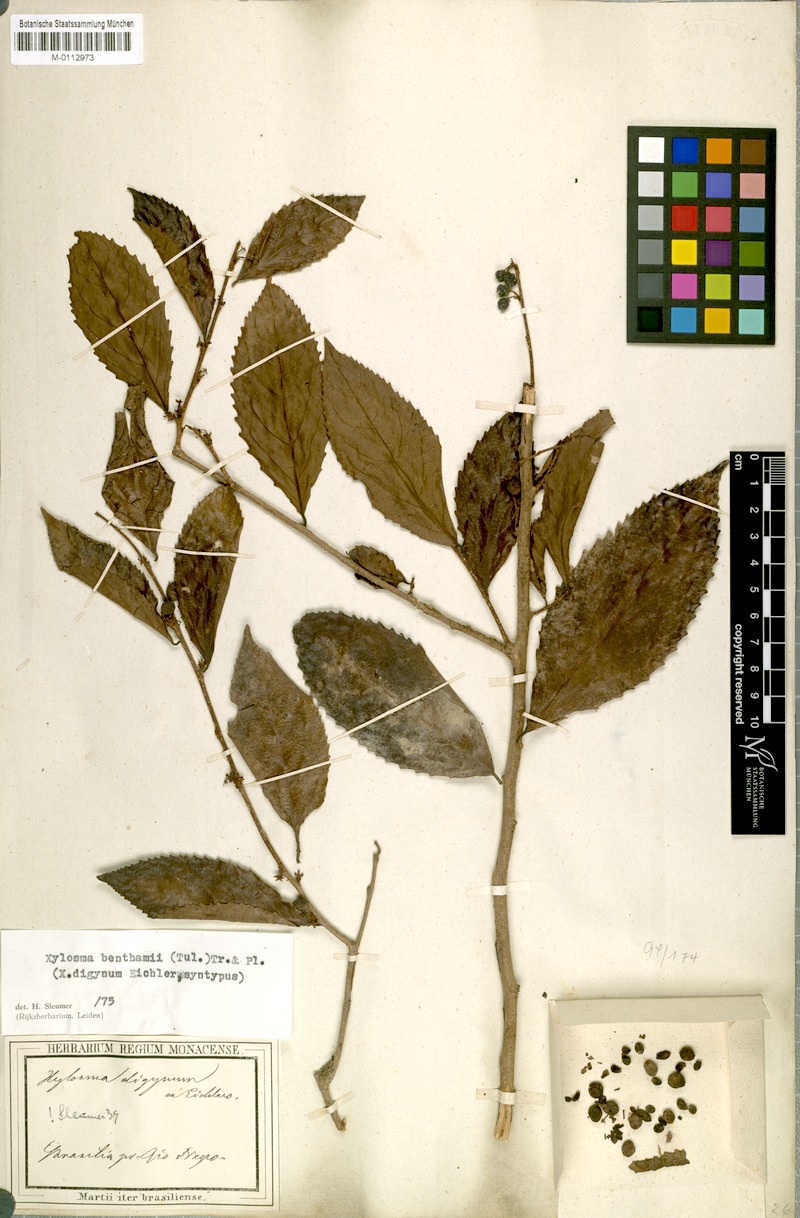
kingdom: Plantae
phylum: Tracheophyta
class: Magnoliopsida
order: Malpighiales
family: Salicaceae
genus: Xylosma
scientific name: Xylosma benthamii
